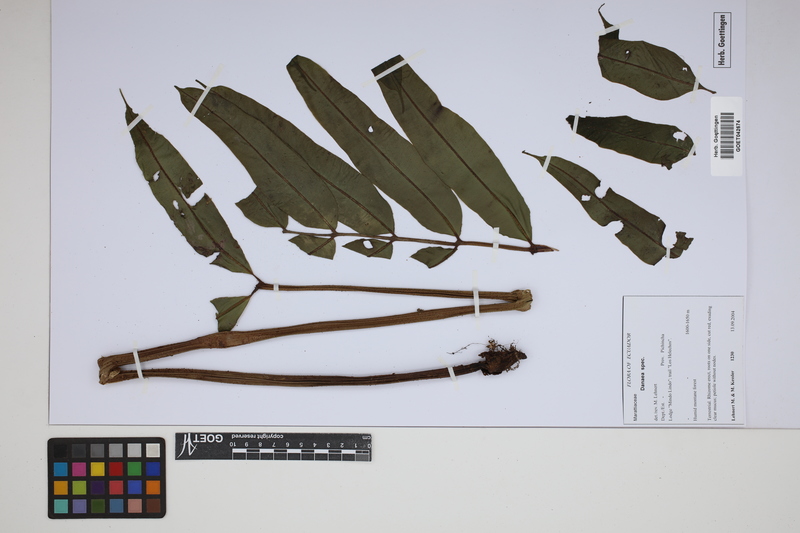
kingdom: Plantae
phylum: Tracheophyta
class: Polypodiopsida
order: Marattiales
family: Marattiaceae
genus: Danaea
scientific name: Danaea
